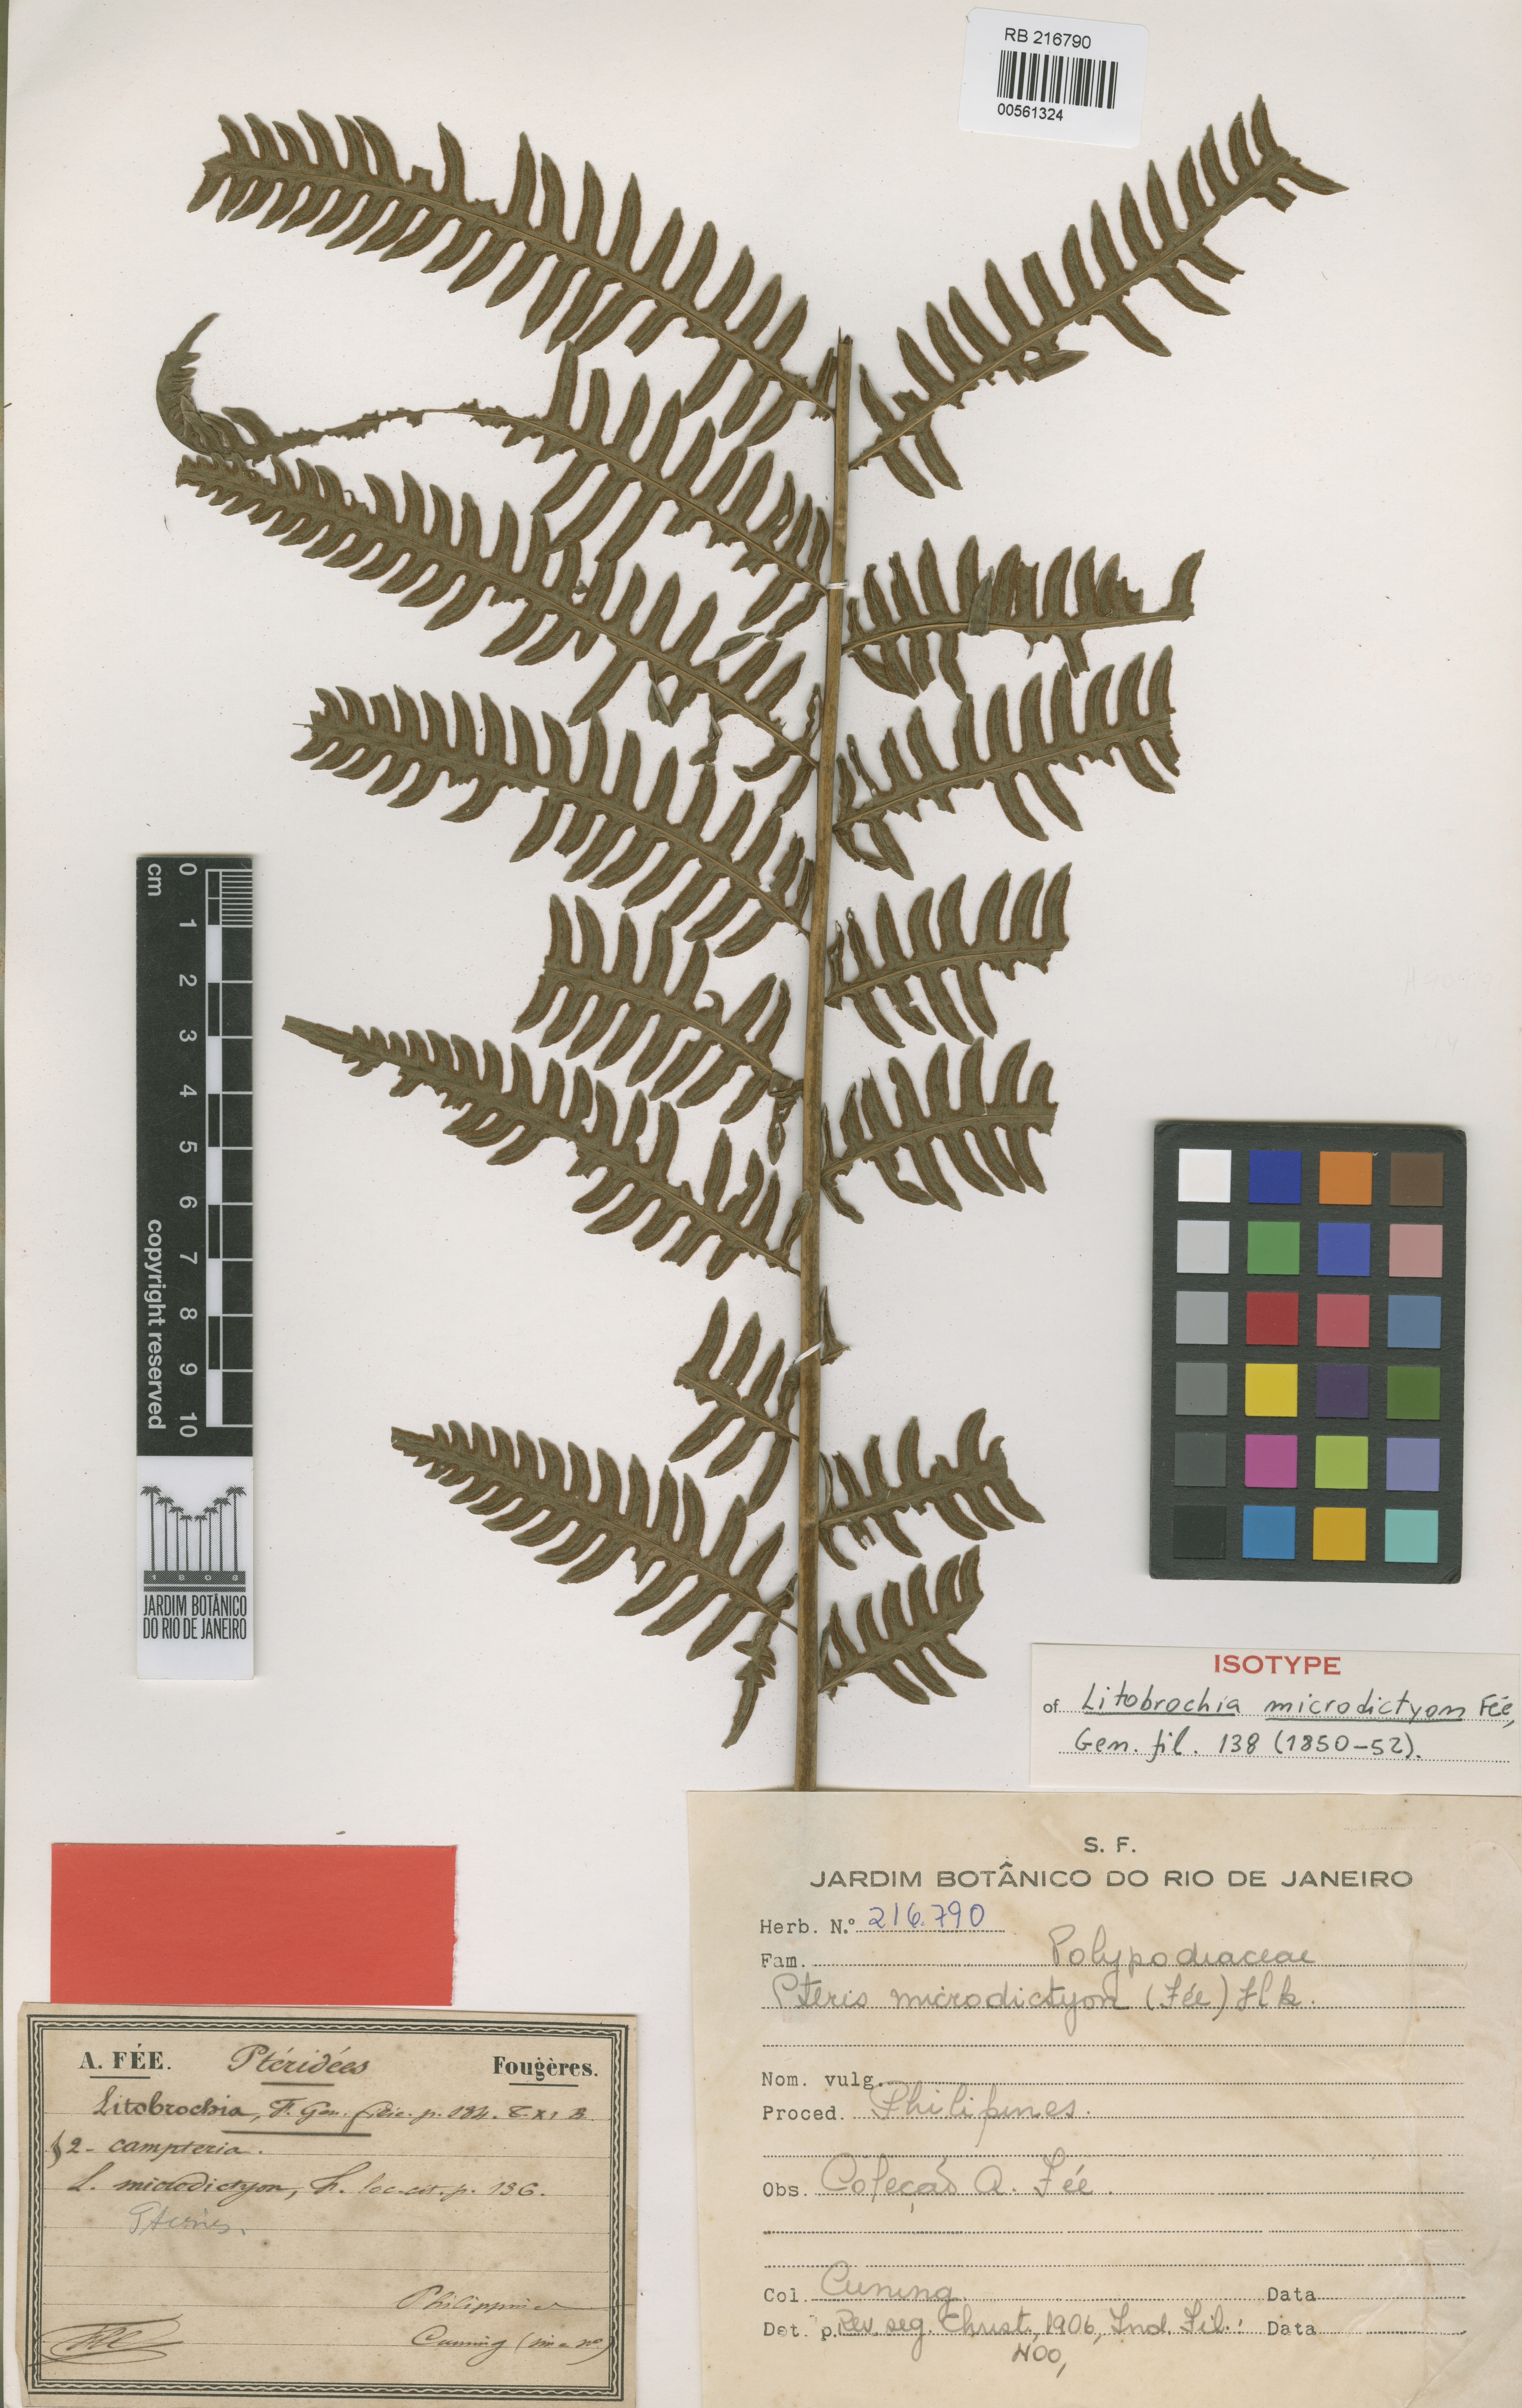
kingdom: Plantae
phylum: Tracheophyta
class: Polypodiopsida
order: Polypodiales
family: Pteridaceae
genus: Pteris
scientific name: Pteris tripartita
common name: Giant brake
